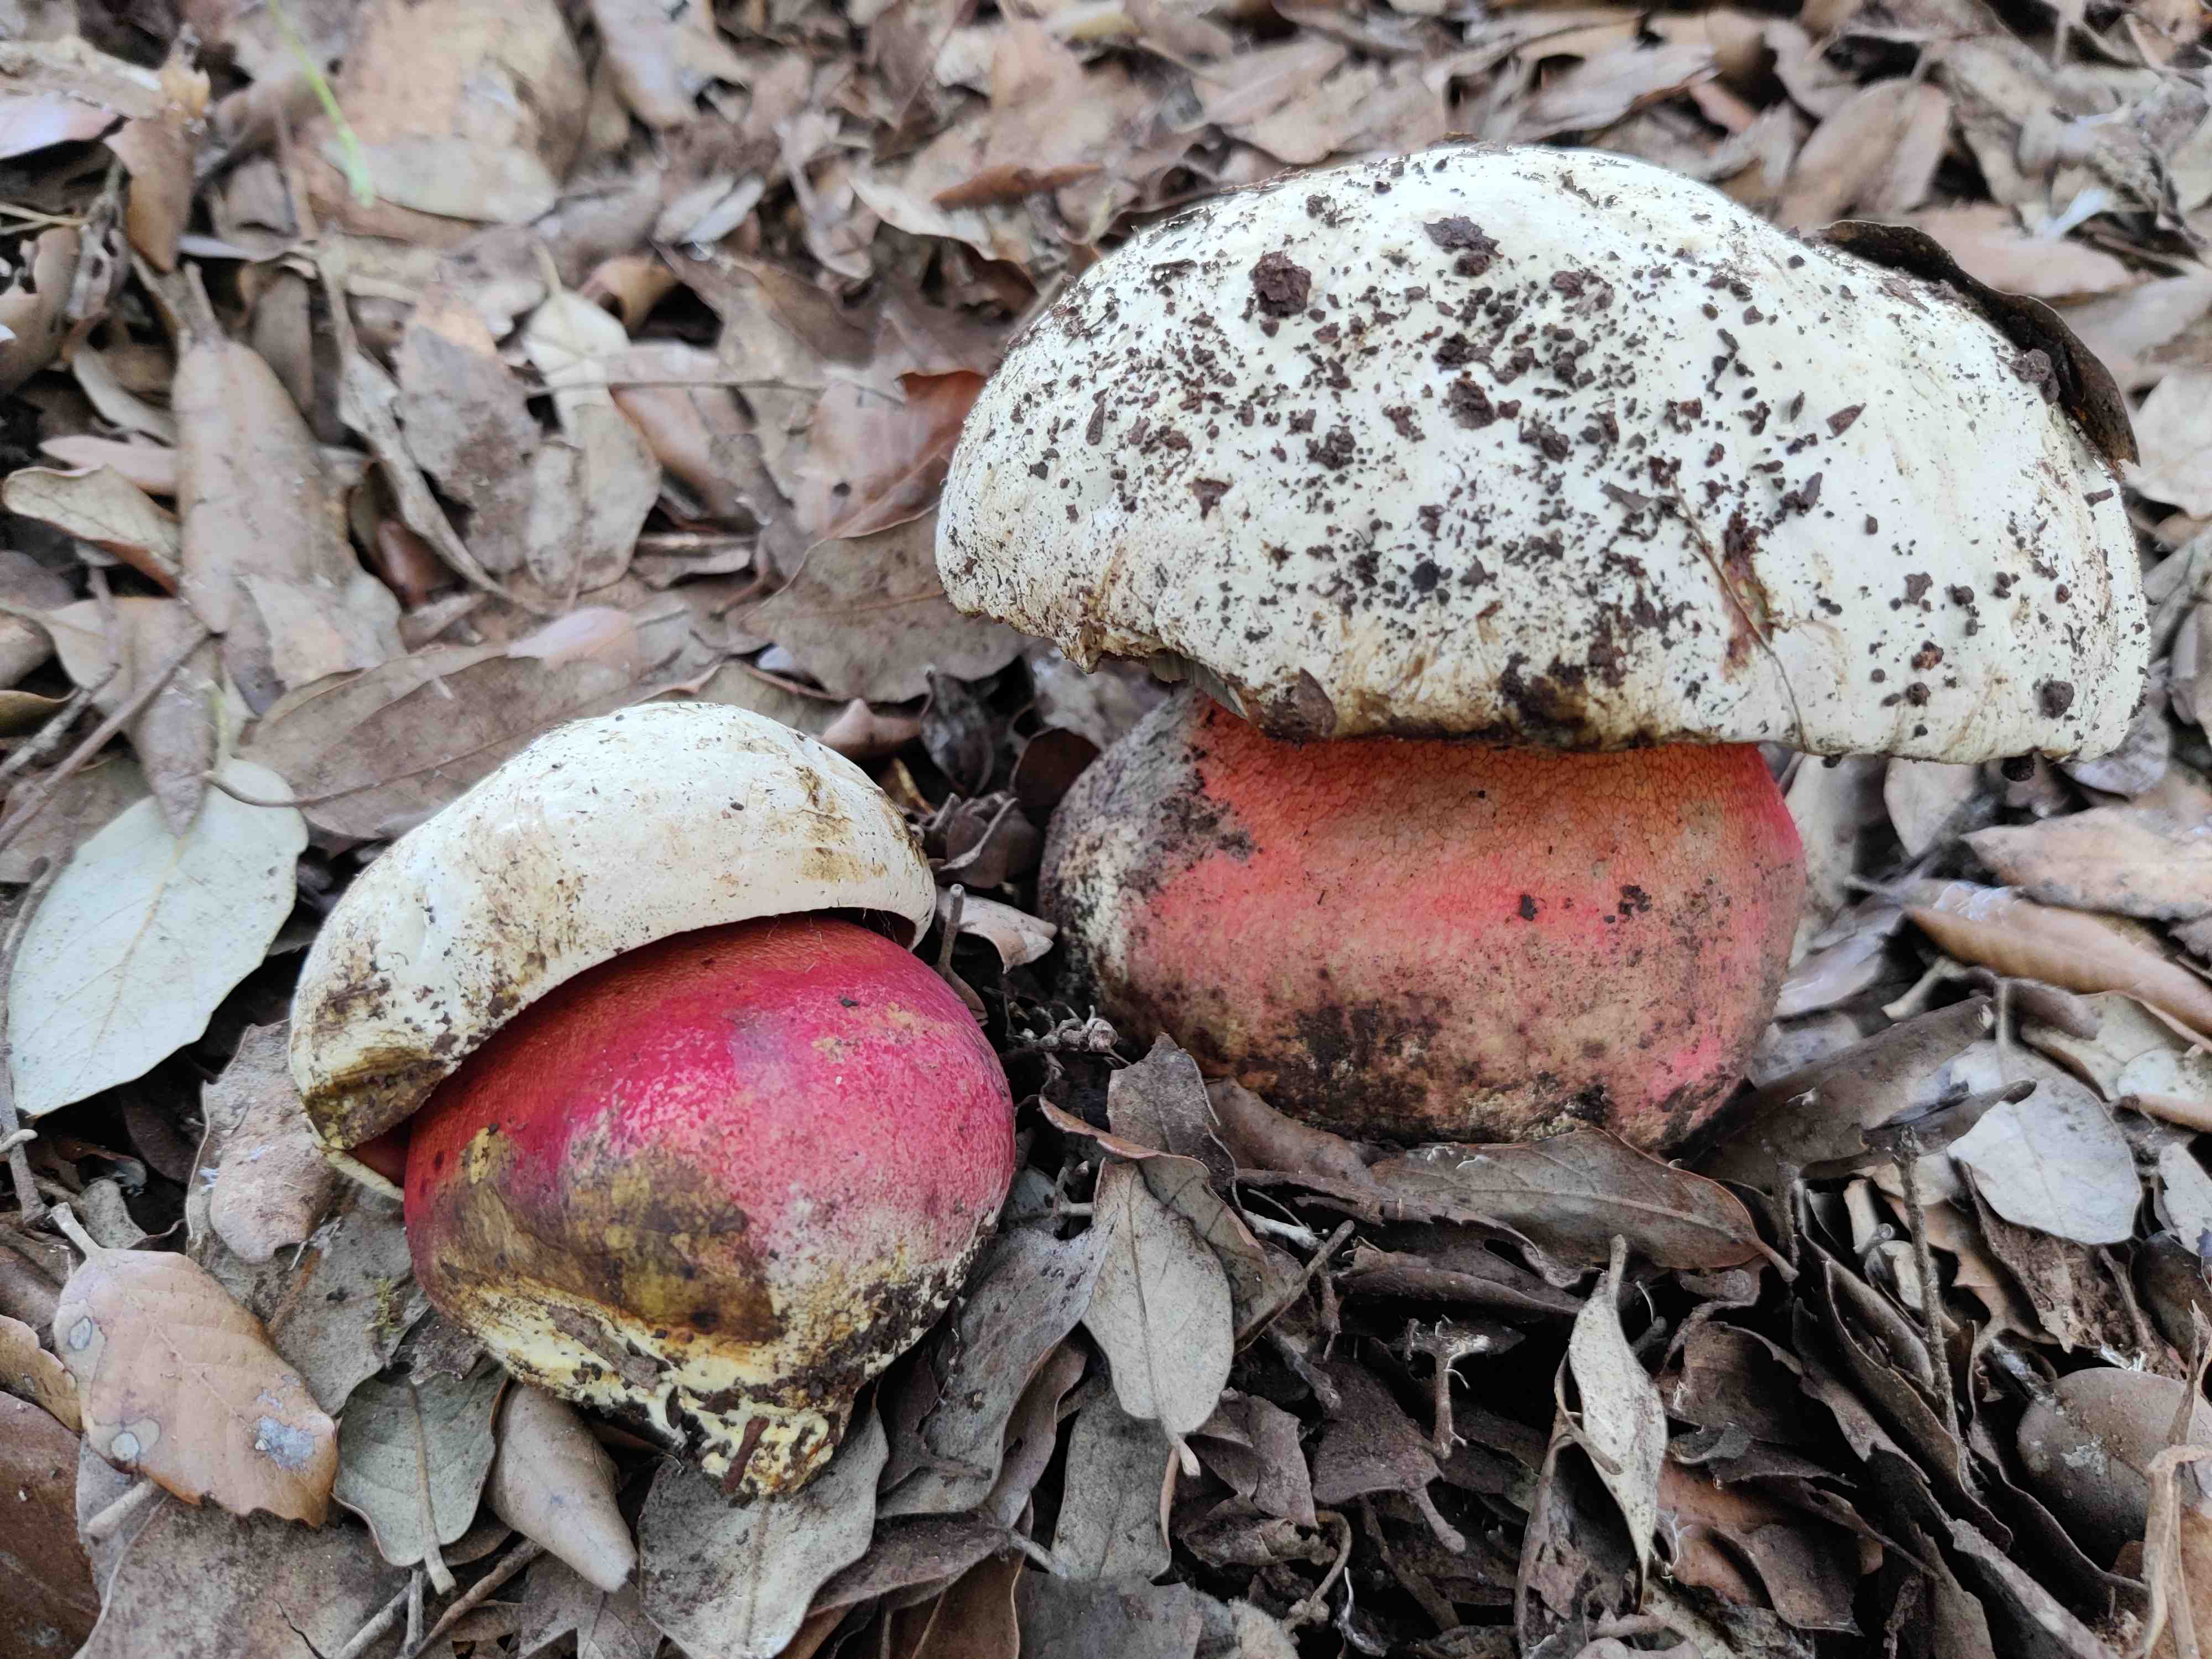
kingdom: Fungi
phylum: Basidiomycota
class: Agaricomycetes
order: Boletales
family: Boletaceae
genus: Rubroboletus
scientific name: Rubroboletus satanas
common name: Satans rørhat
